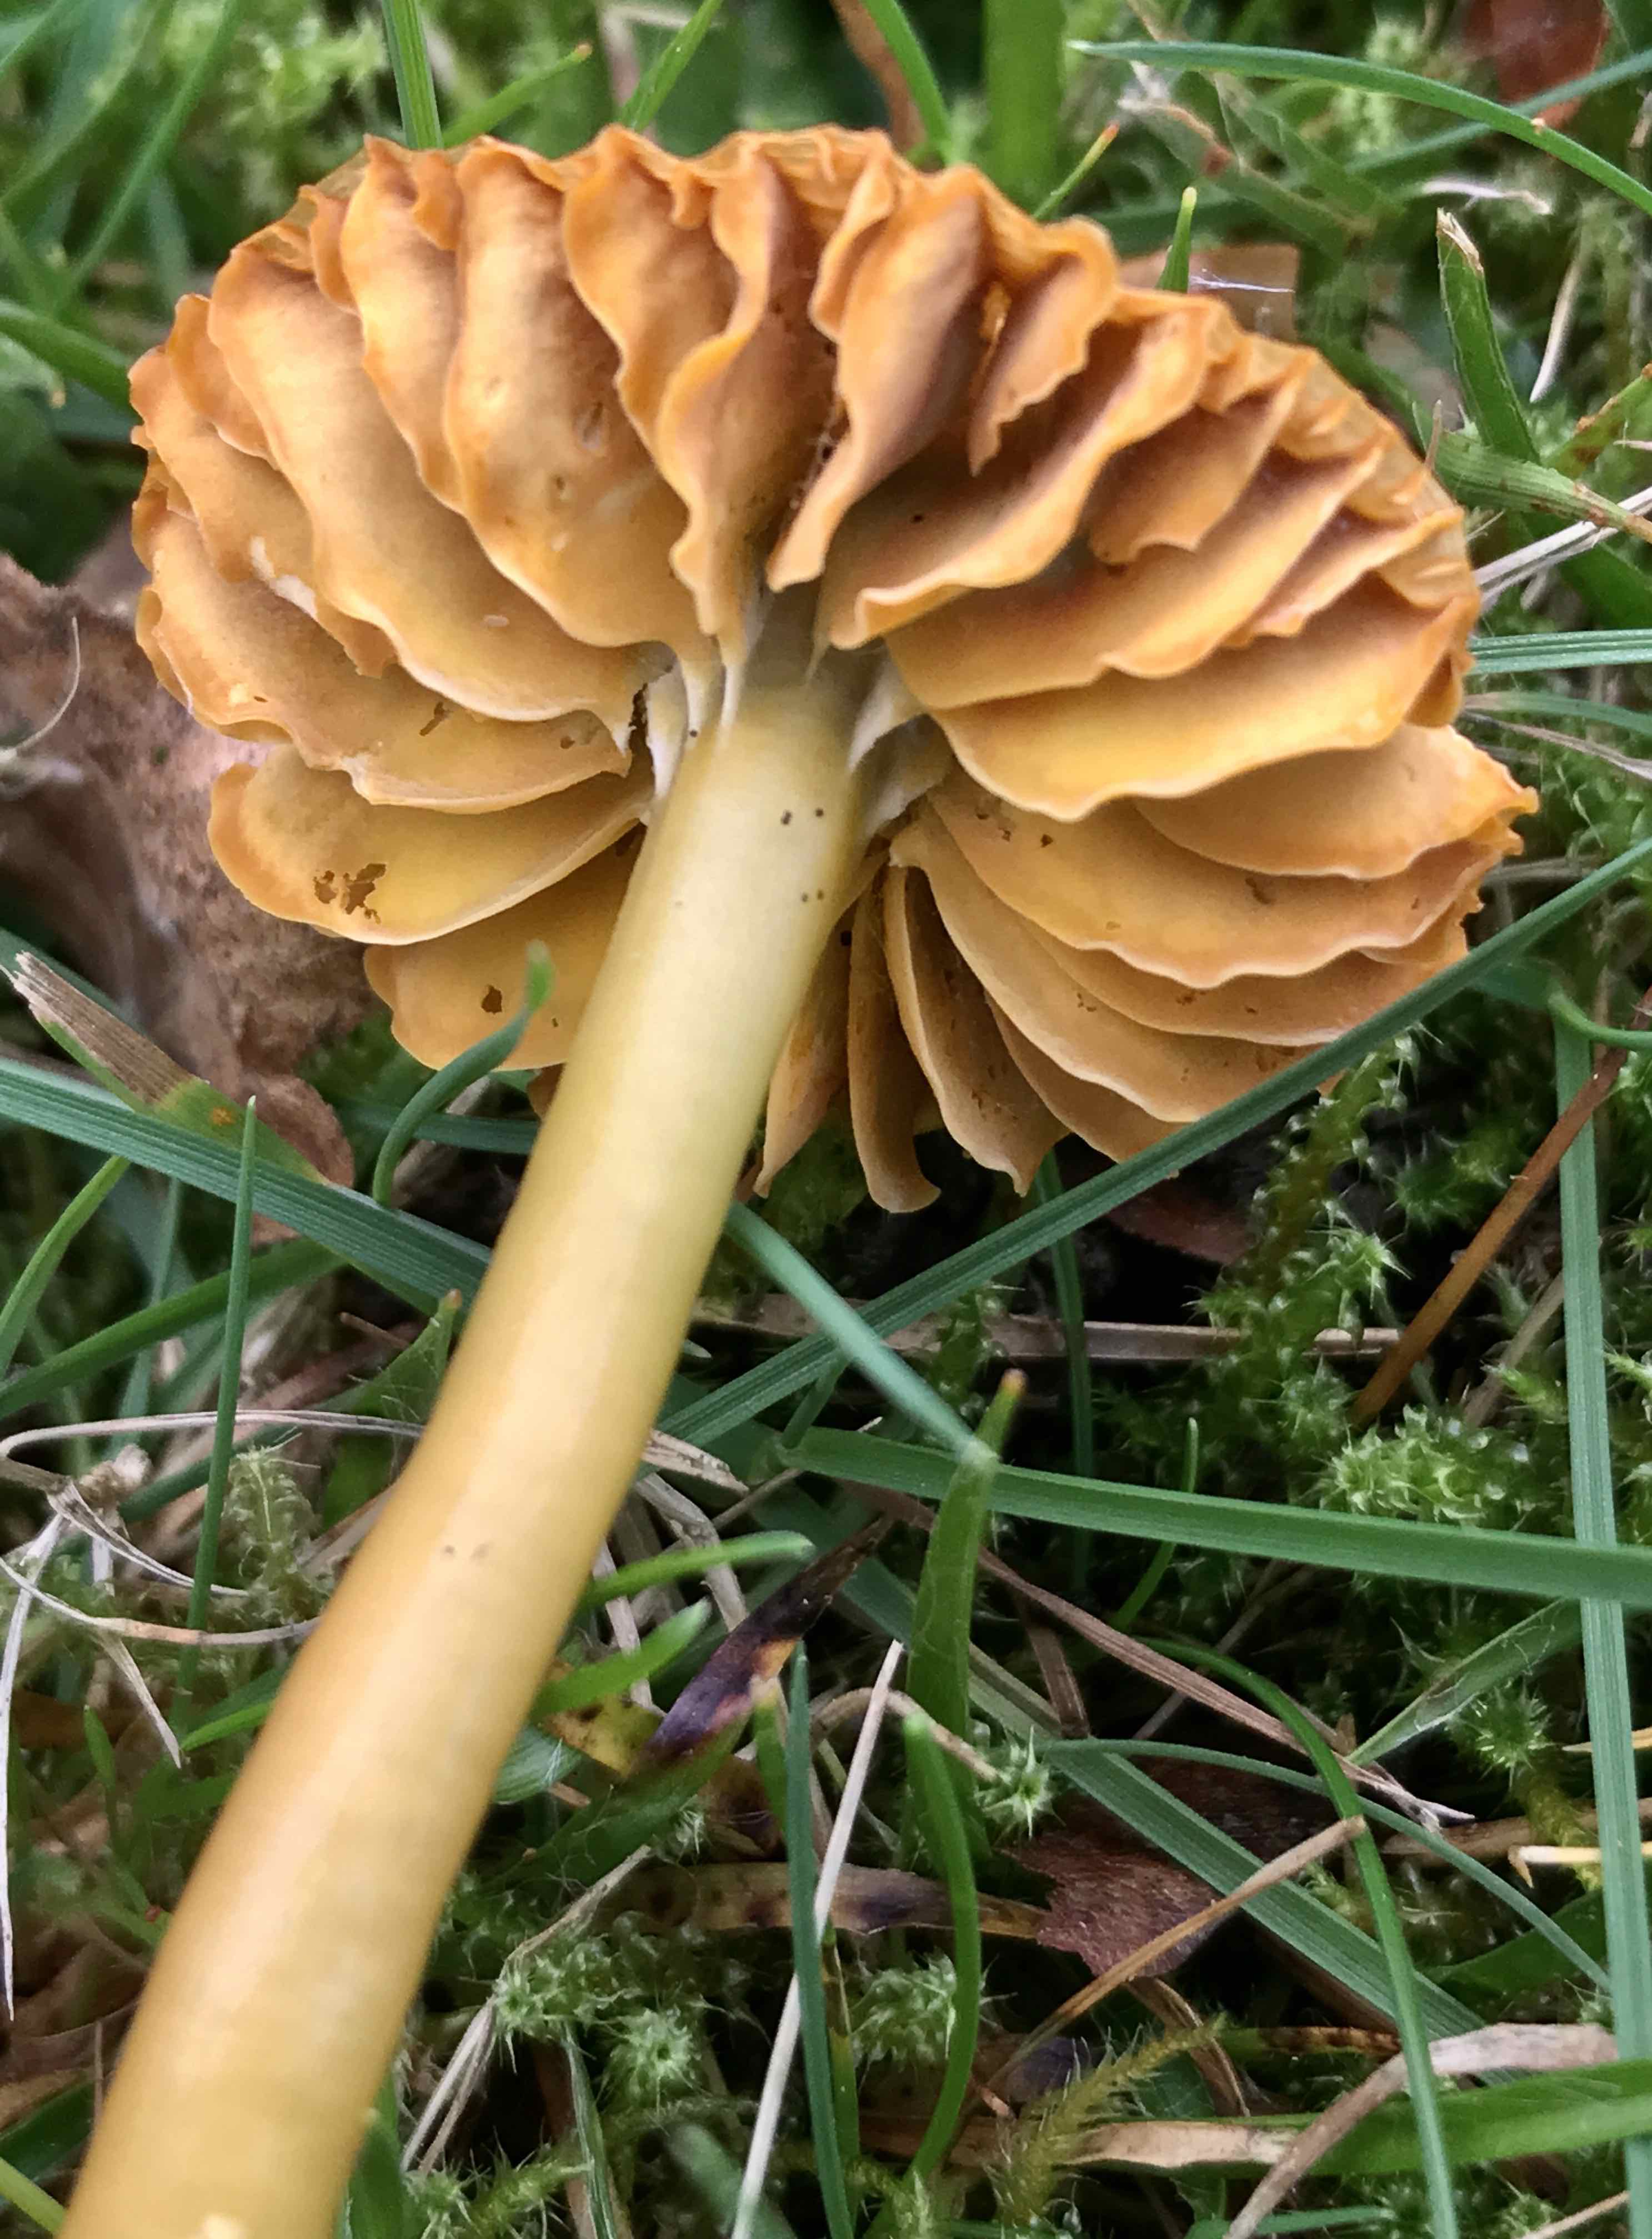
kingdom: Fungi
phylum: Basidiomycota
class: Agaricomycetes
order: Agaricales
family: Hygrophoraceae
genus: Gliophorus
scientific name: Gliophorus psittacinus
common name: papegøje-vokshat
